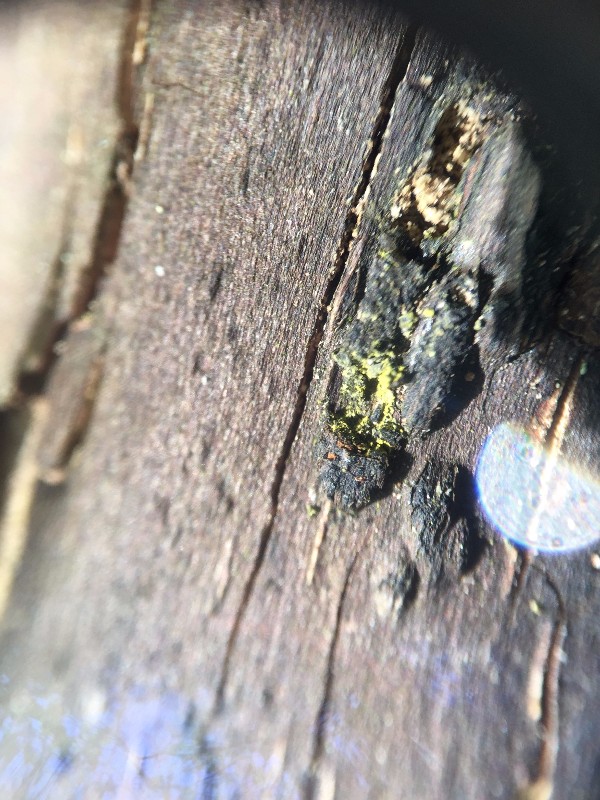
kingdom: Fungi
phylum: Ascomycota
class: Sordariomycetes
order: Xylariales
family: Diatrypaceae
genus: Eutypa
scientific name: Eutypa flavovirens
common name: grønkødet kulskorpe
